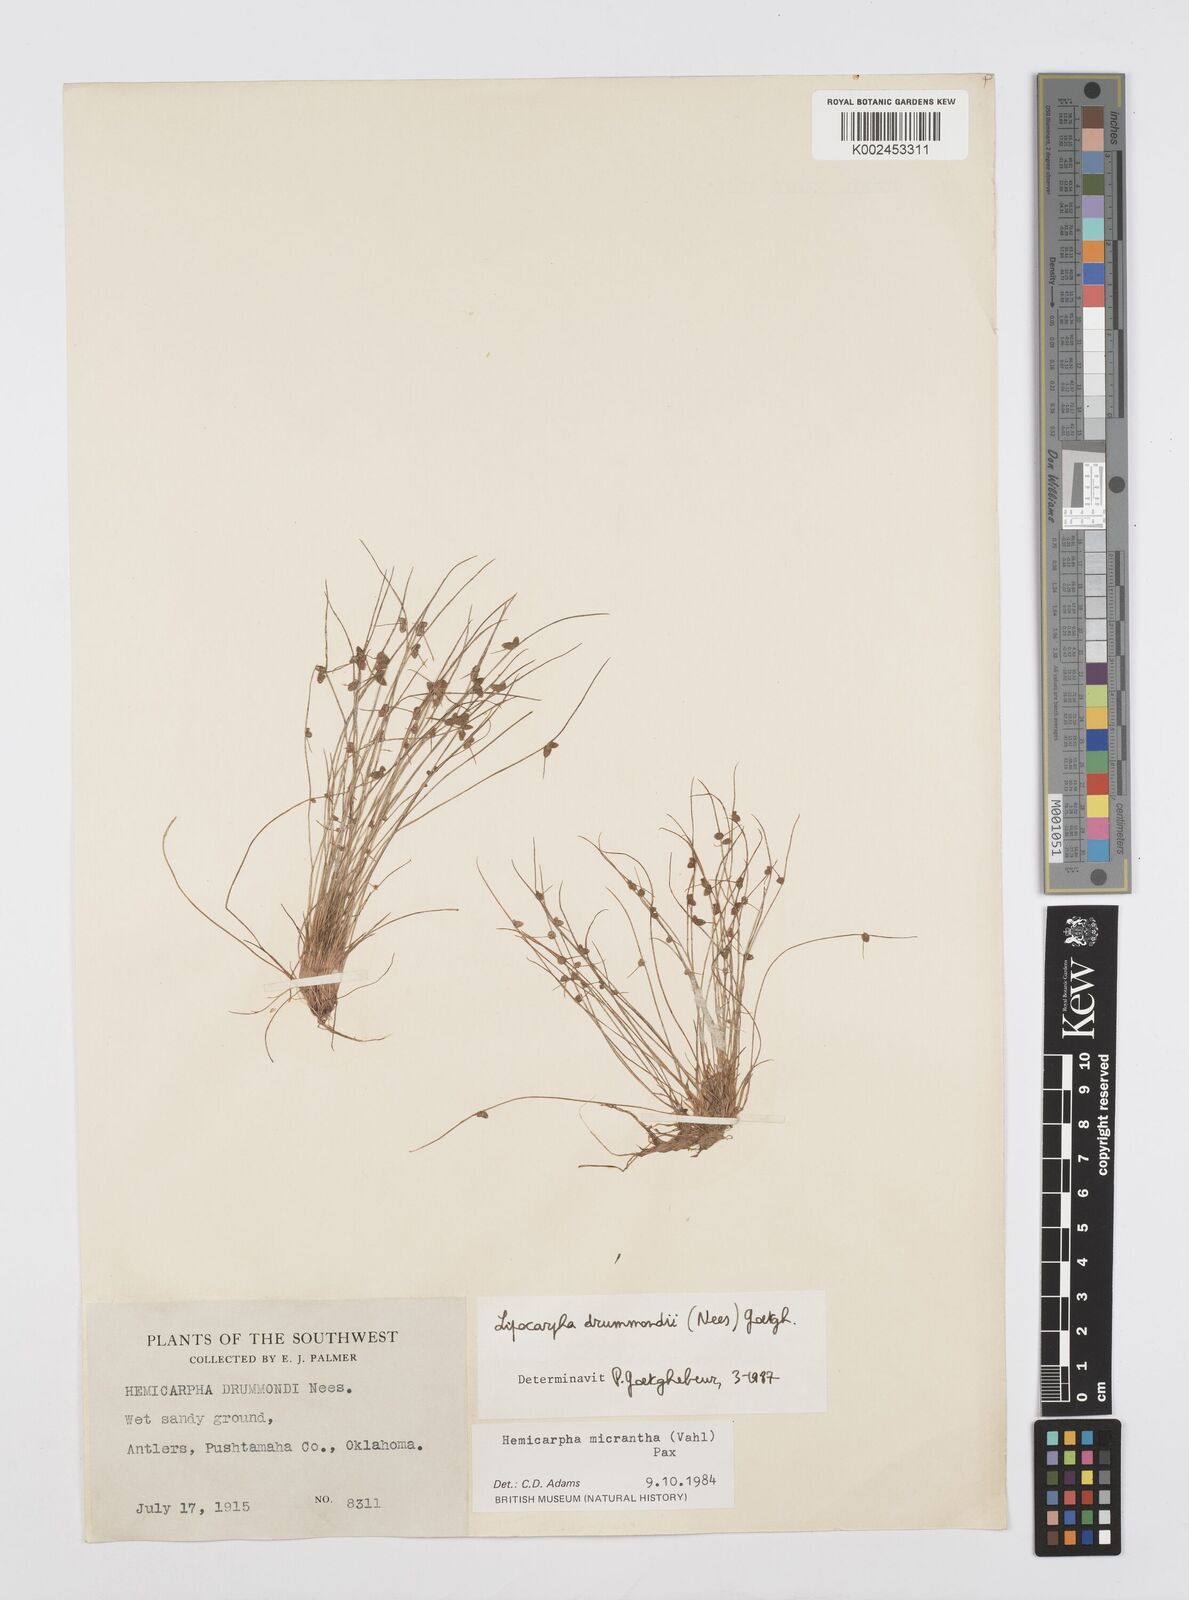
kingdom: Plantae
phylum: Tracheophyta
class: Liliopsida
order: Poales
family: Cyperaceae
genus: Cyperus
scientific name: Cyperus drummondii
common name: Green flat sedge
